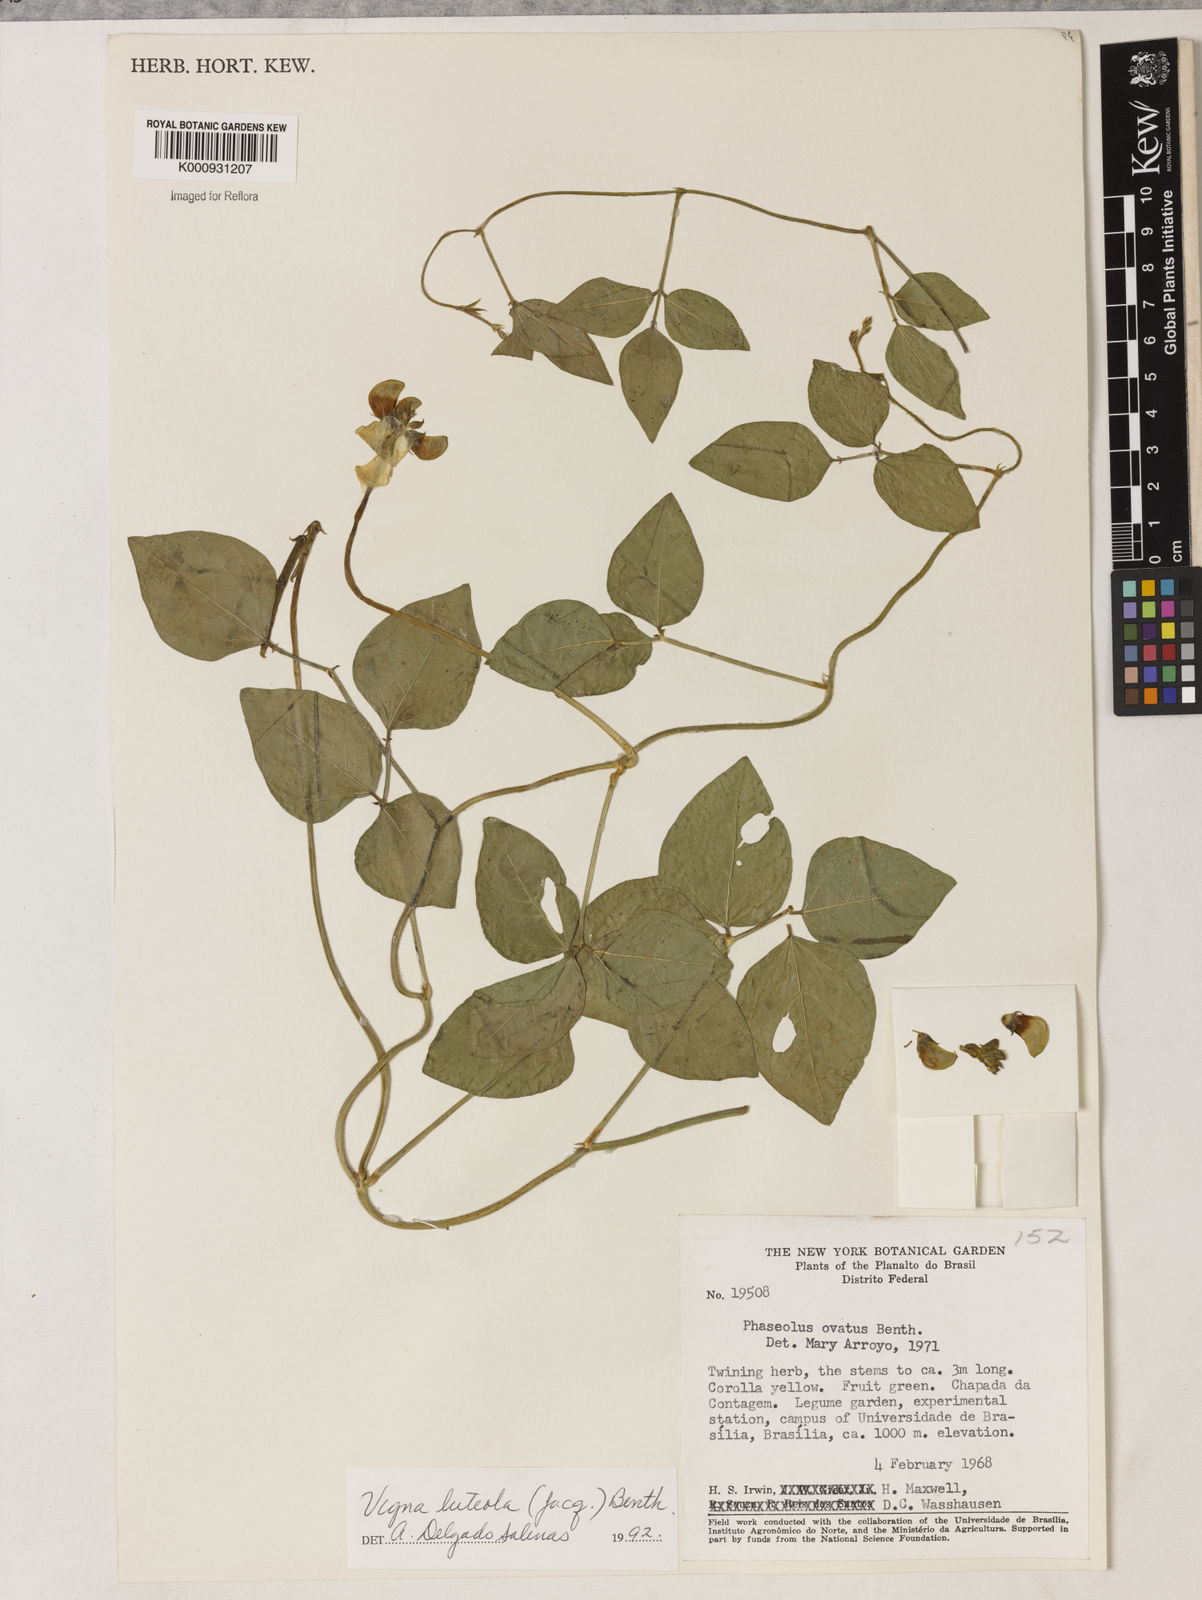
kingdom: Plantae
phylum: Tracheophyta
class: Magnoliopsida
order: Fabales
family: Fabaceae
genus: Vigna
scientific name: Vigna luteola
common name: Hairypod cowpea
